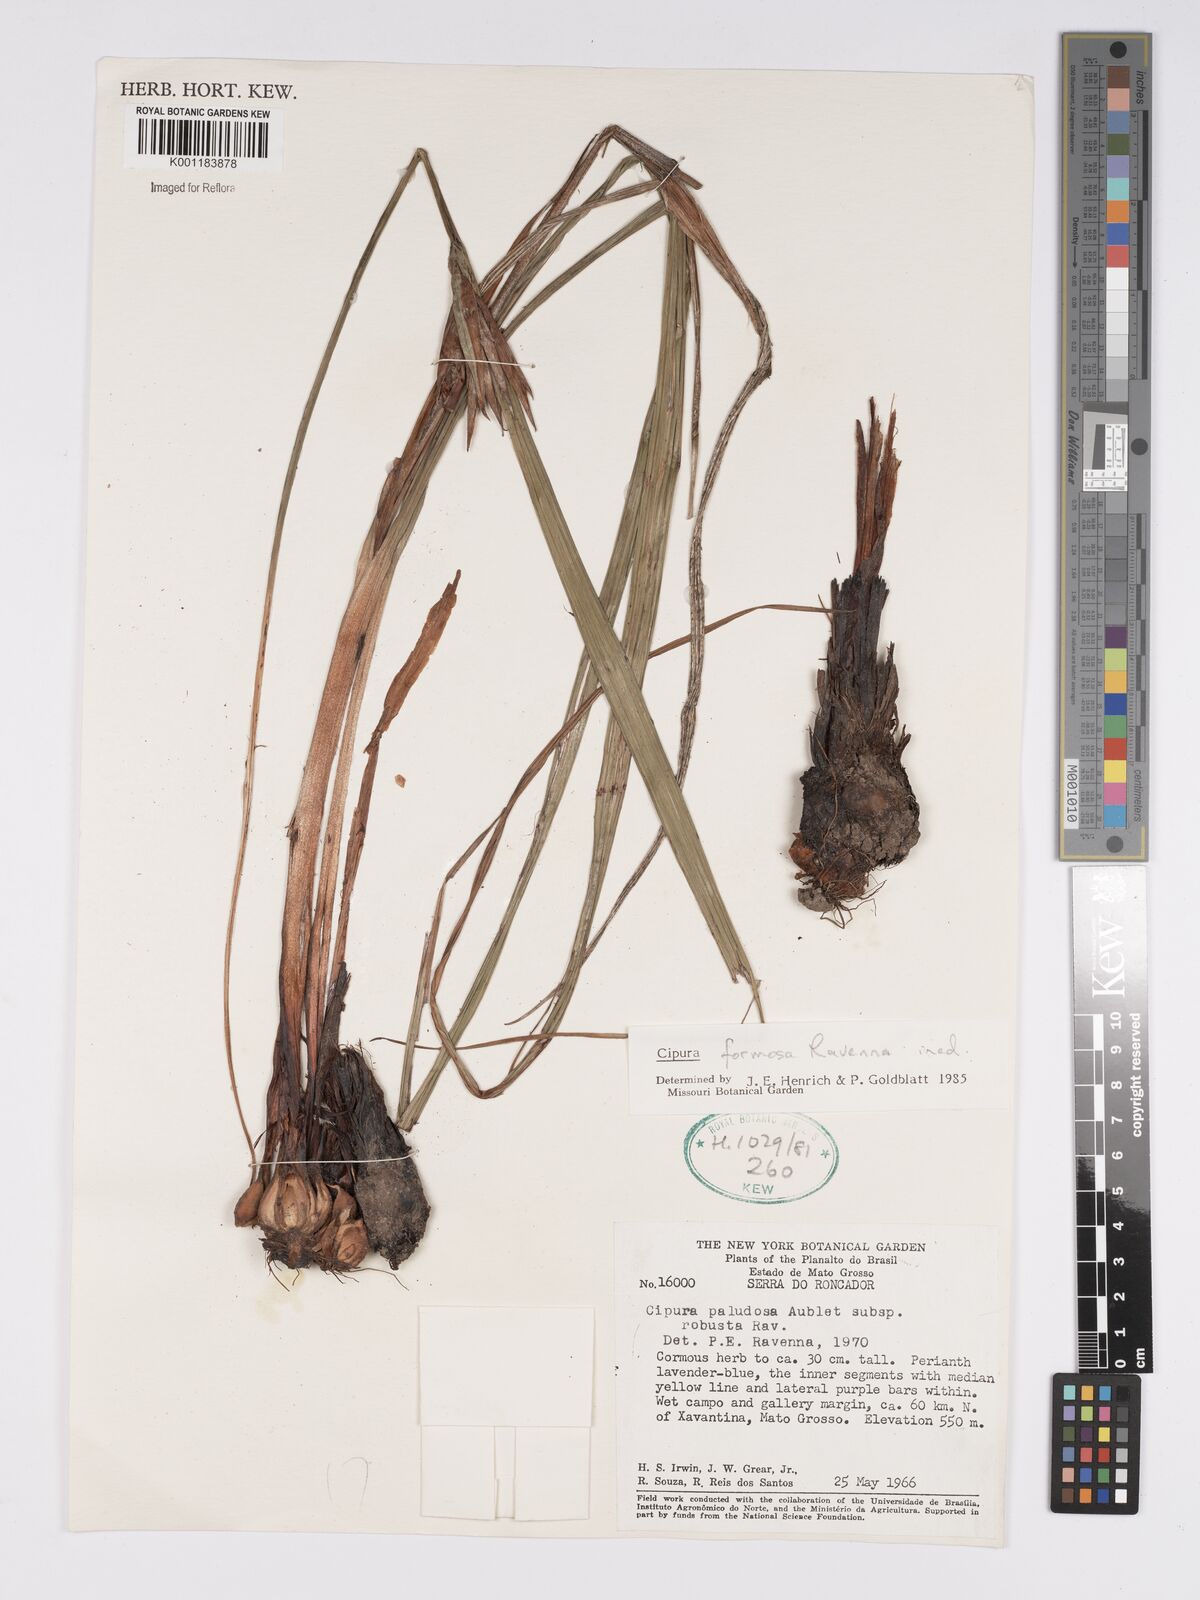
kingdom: Plantae
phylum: Tracheophyta
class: Liliopsida
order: Asparagales
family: Iridaceae
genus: Cipura
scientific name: Cipura formosa
